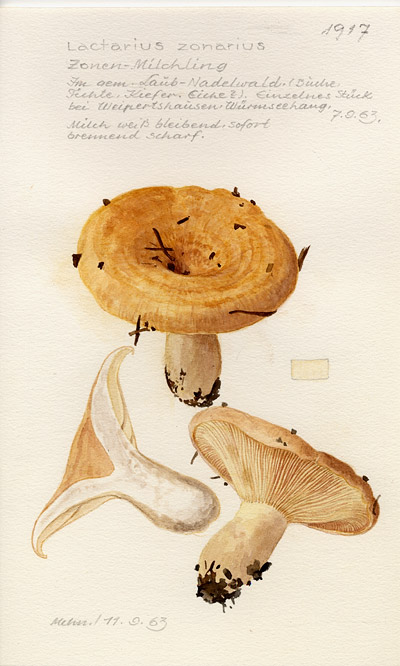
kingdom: Fungi
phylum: Basidiomycota
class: Agaricomycetes
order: Russulales
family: Russulaceae
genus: Lactarius
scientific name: Lactarius zonarius
